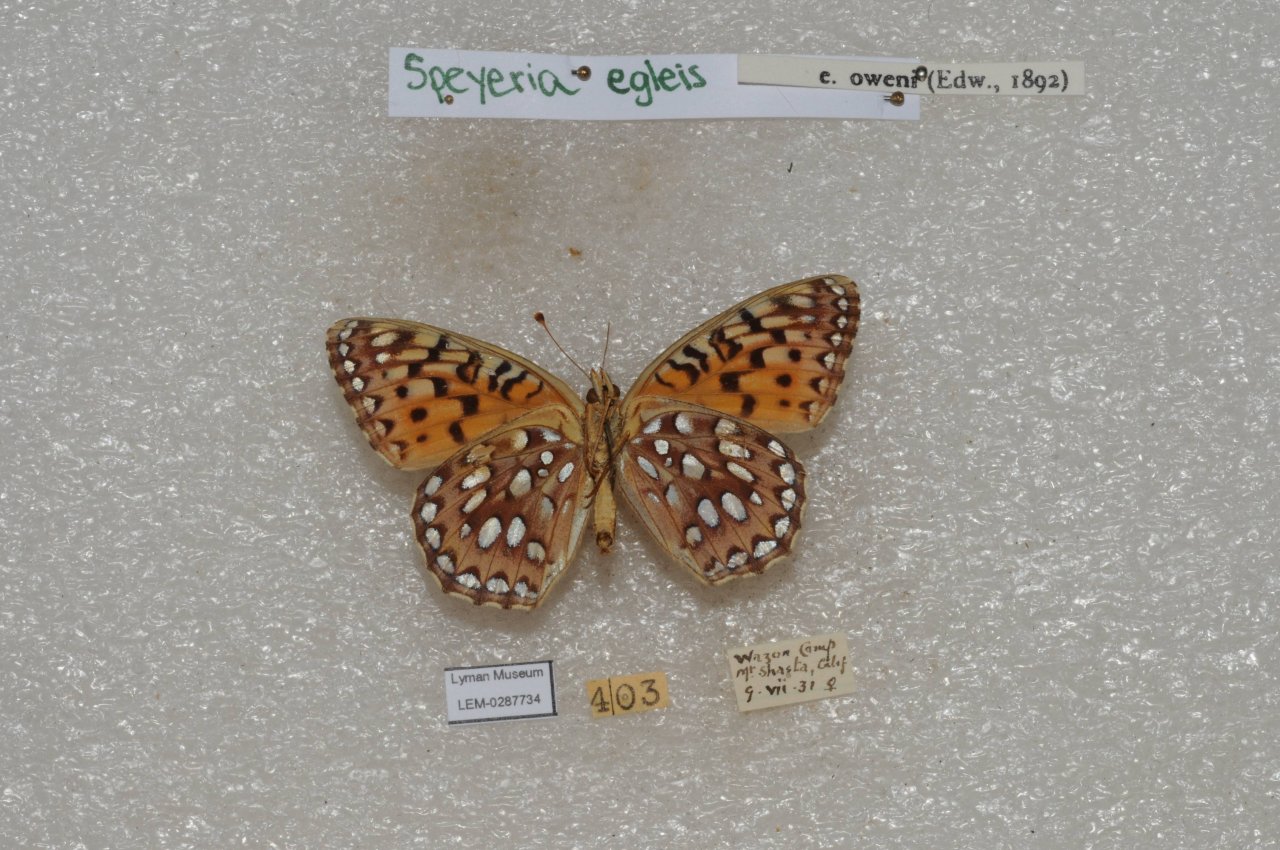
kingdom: Animalia
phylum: Arthropoda
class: Insecta
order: Lepidoptera
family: Nymphalidae
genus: Speyeria
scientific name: Speyeria egleis
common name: Great Basin Fritillary
